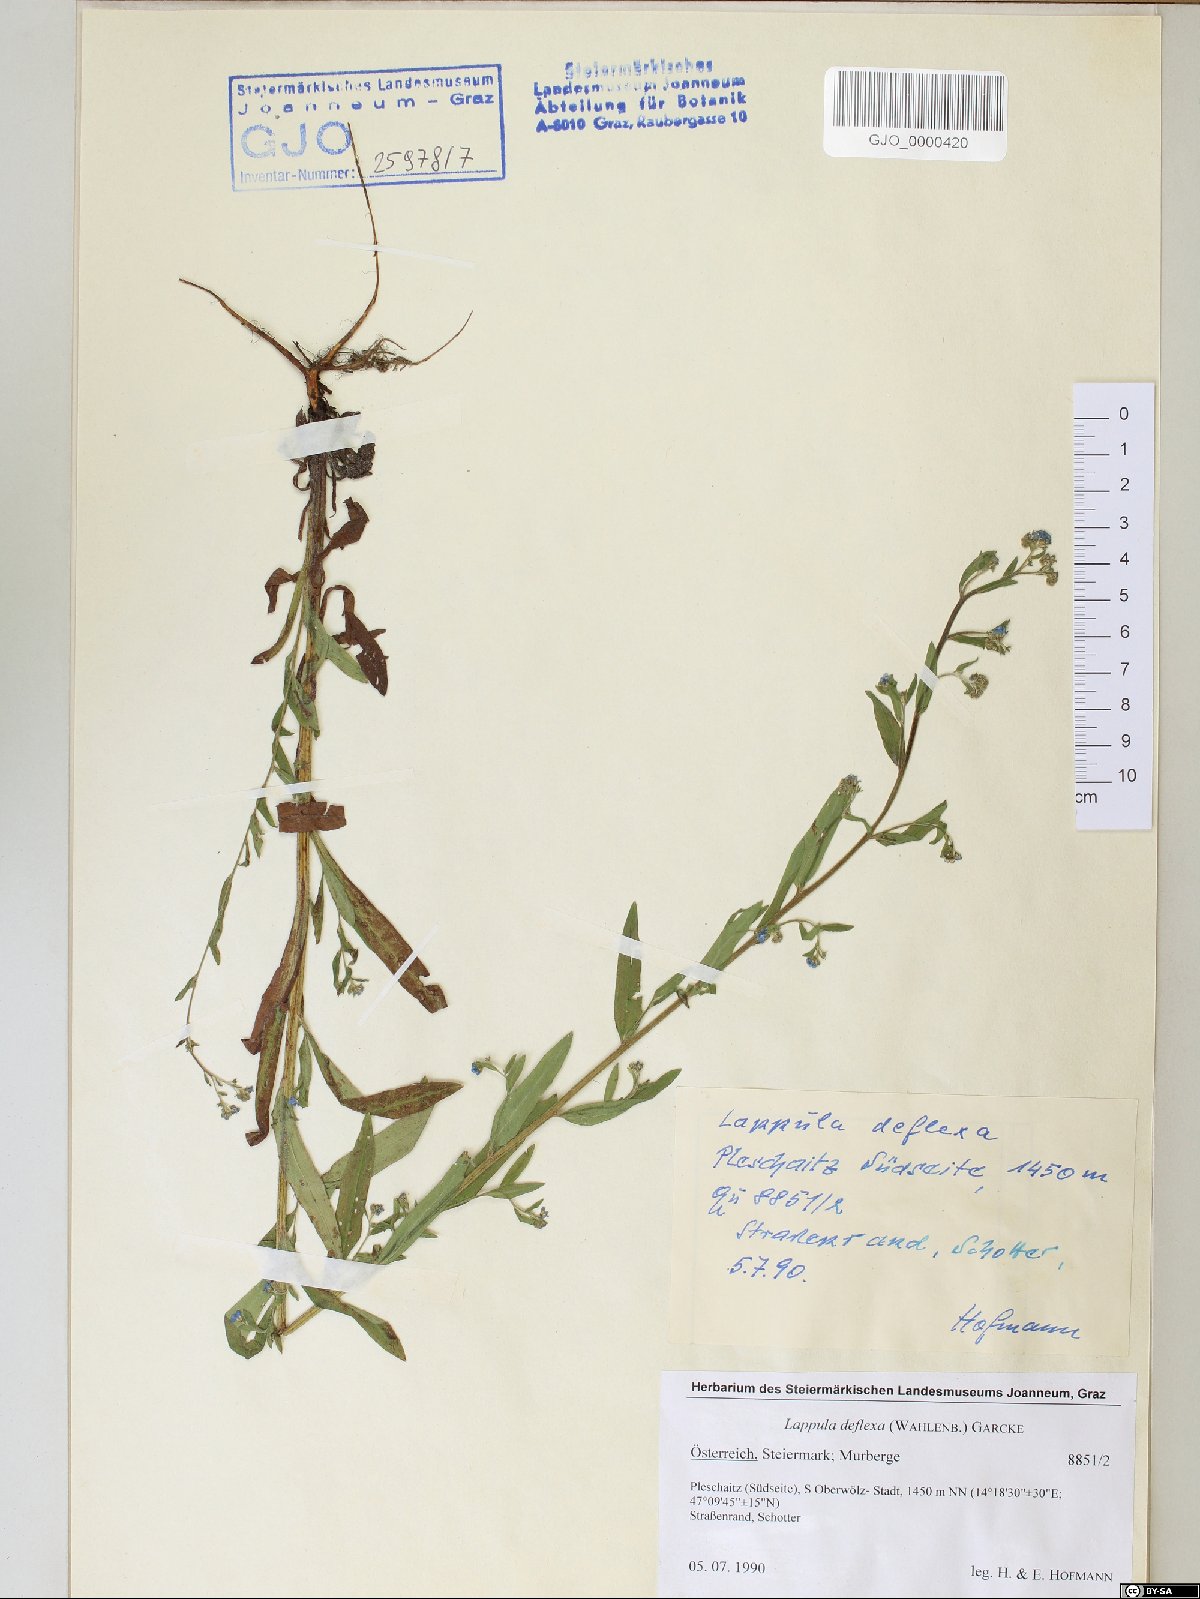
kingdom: Plantae
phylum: Tracheophyta
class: Magnoliopsida
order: Boraginales
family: Boraginaceae
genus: Hackelia
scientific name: Hackelia deflexa
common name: Nodding stickseed
